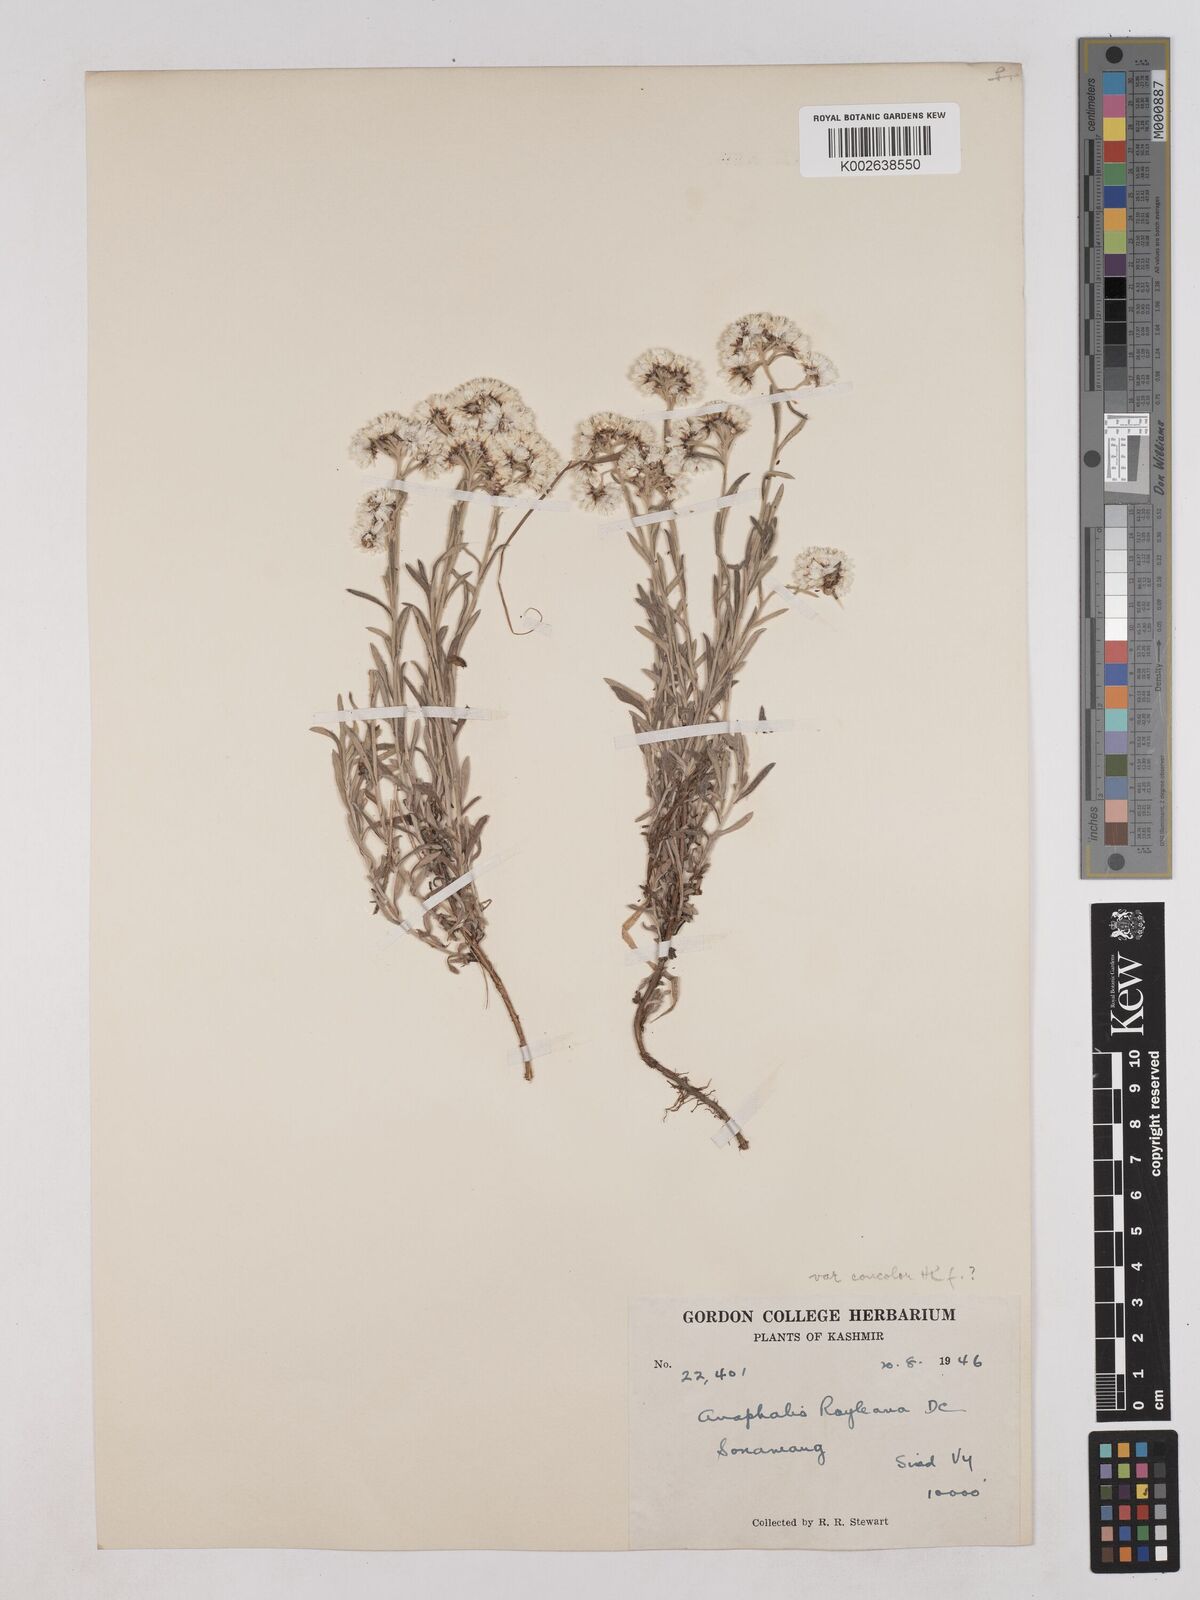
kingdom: Plantae
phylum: Tracheophyta
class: Magnoliopsida
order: Asterales
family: Asteraceae
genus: Anaphalis
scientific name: Anaphalis royleana
